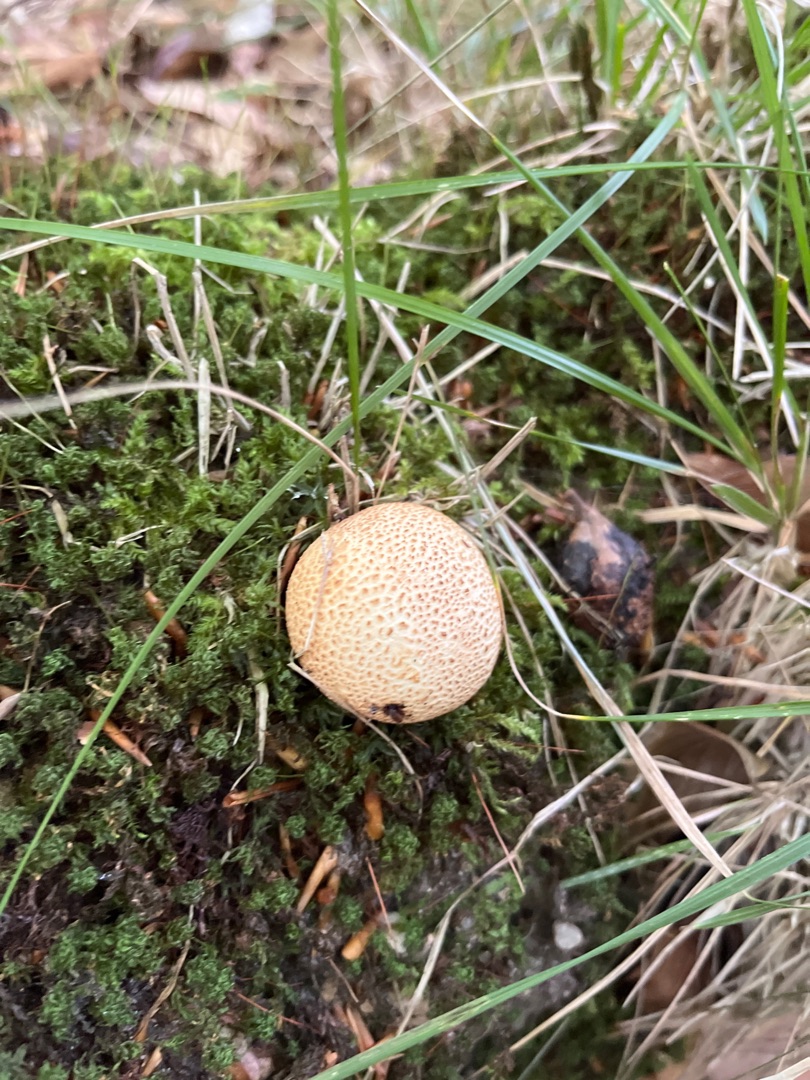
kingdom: Fungi
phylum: Basidiomycota
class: Agaricomycetes
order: Boletales
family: Sclerodermataceae
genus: Scleroderma
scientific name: Scleroderma citrinum
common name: Almindelig bruskbold
